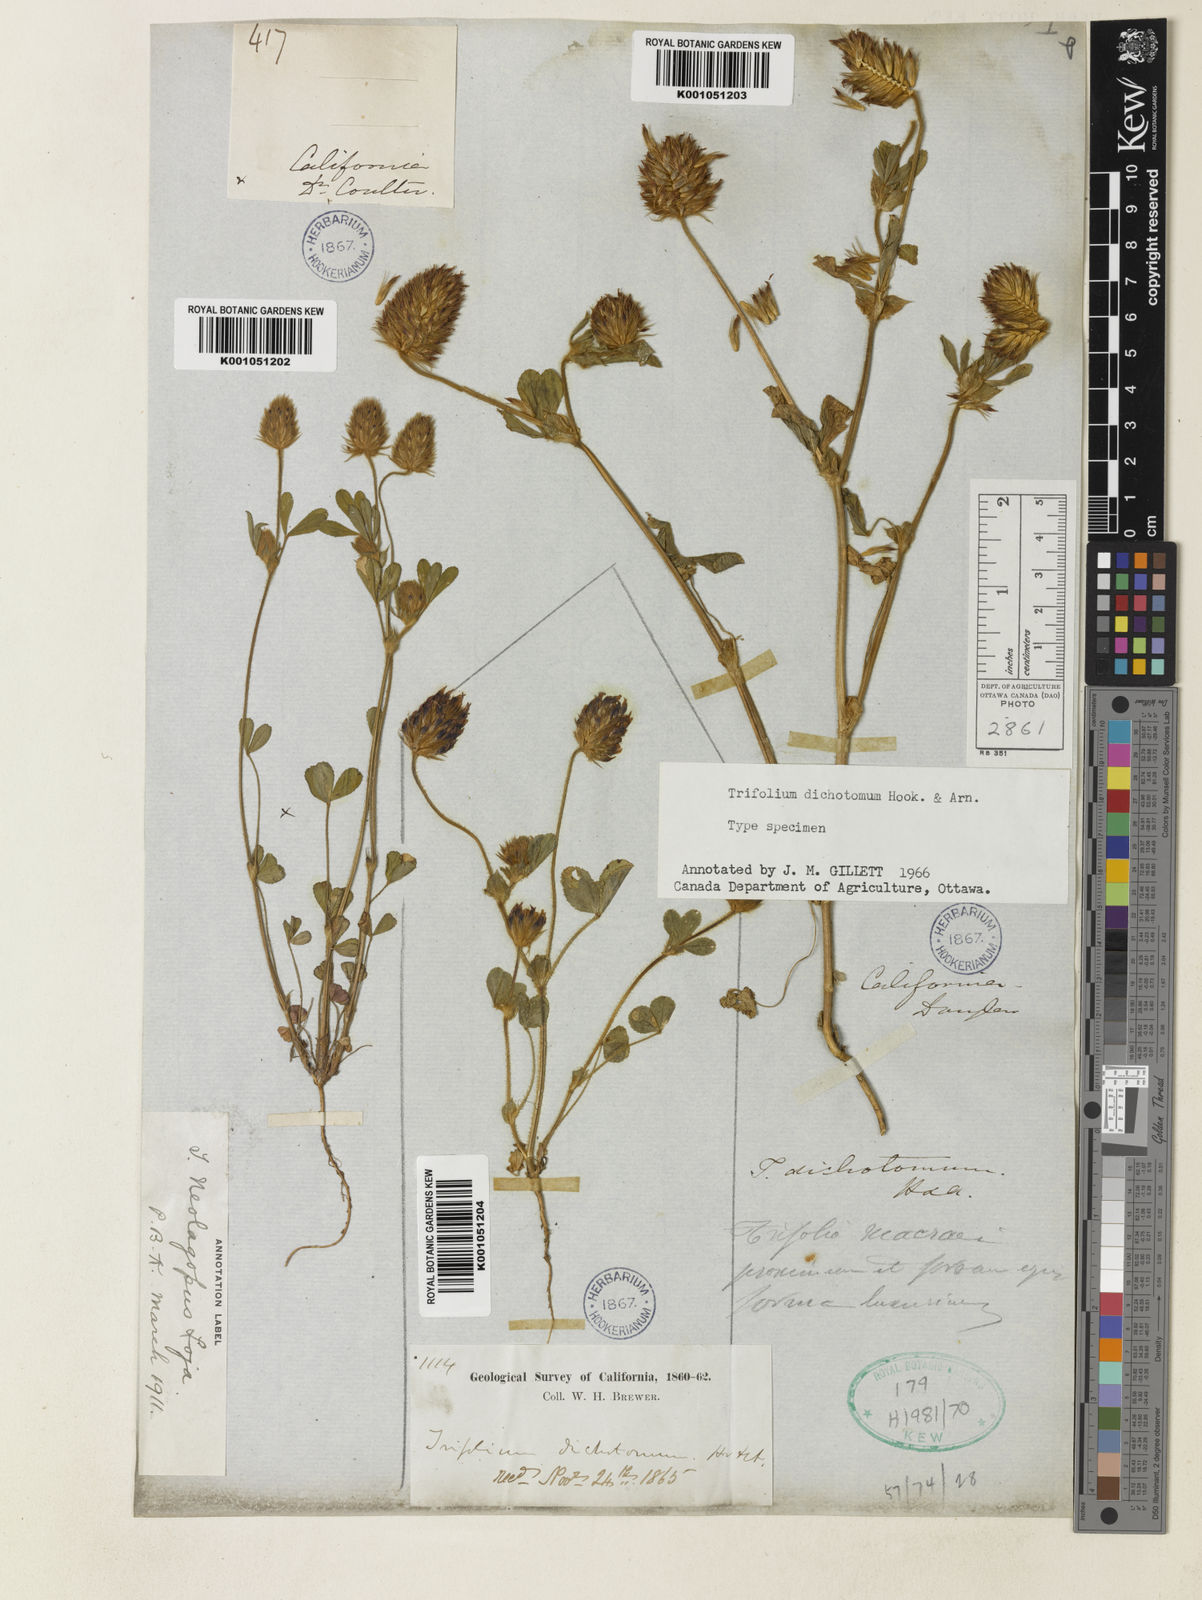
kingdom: Plantae
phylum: Tracheophyta
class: Magnoliopsida
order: Fabales
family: Fabaceae
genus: Trifolium
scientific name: Trifolium dichotomum
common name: Branched indian clover
